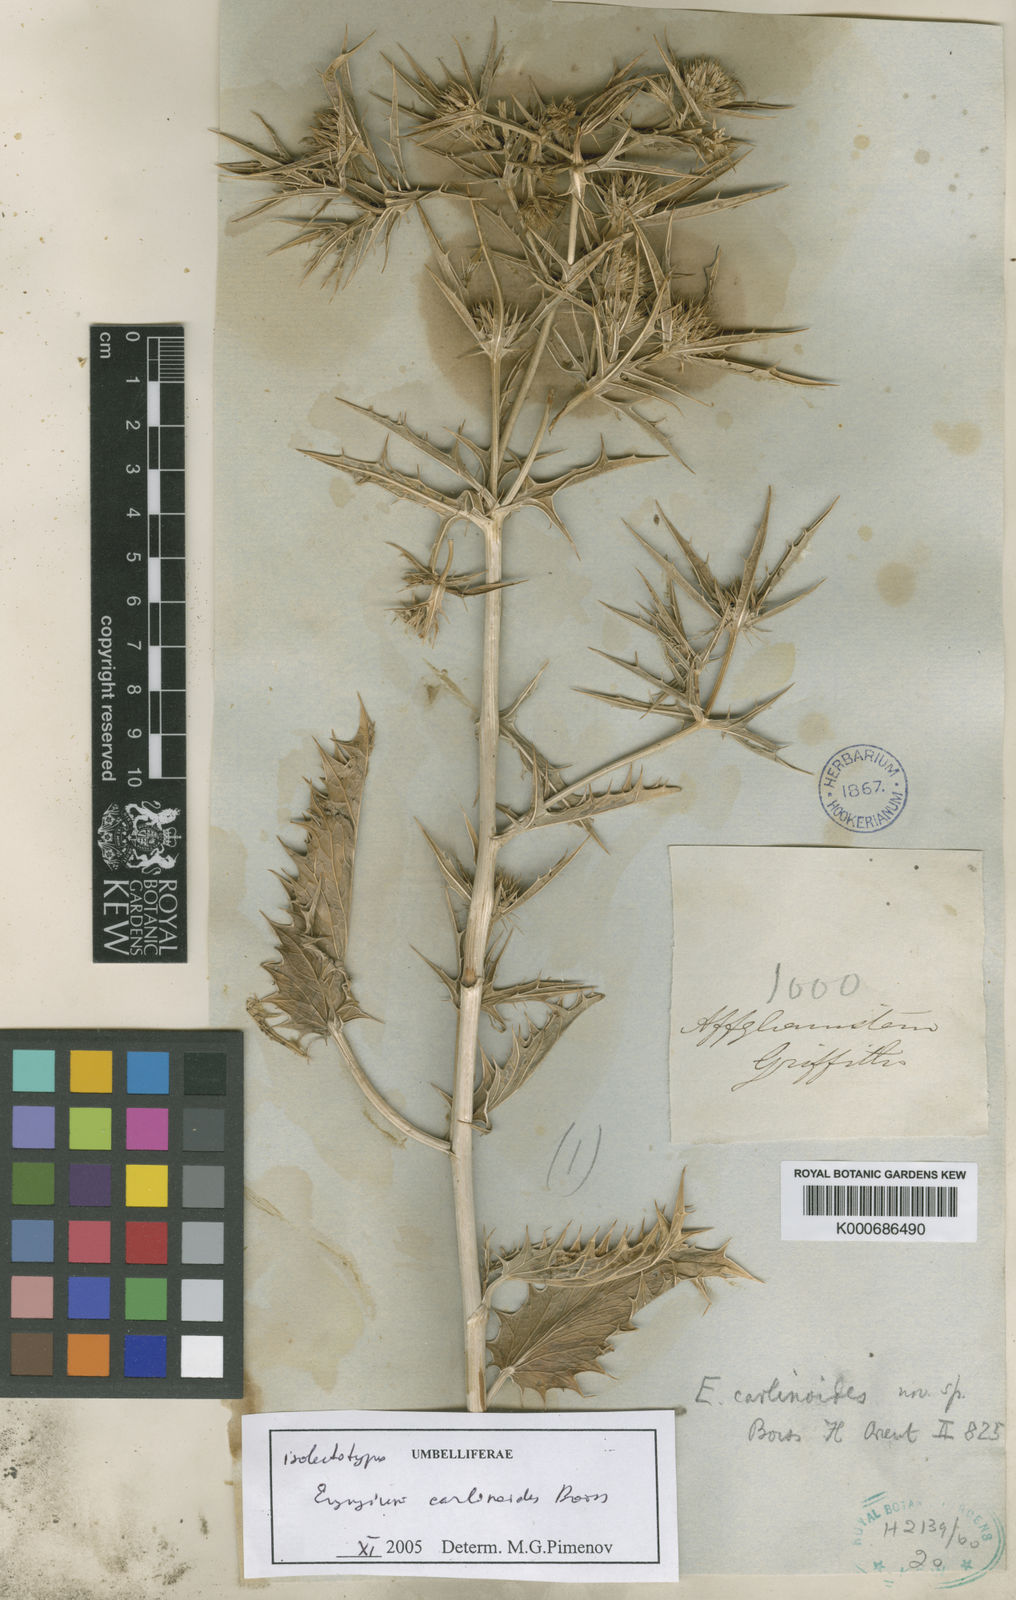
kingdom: Plantae
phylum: Tracheophyta
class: Magnoliopsida
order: Apiales
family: Apiaceae
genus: Eryngium
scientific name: Eryngium carlinoides
